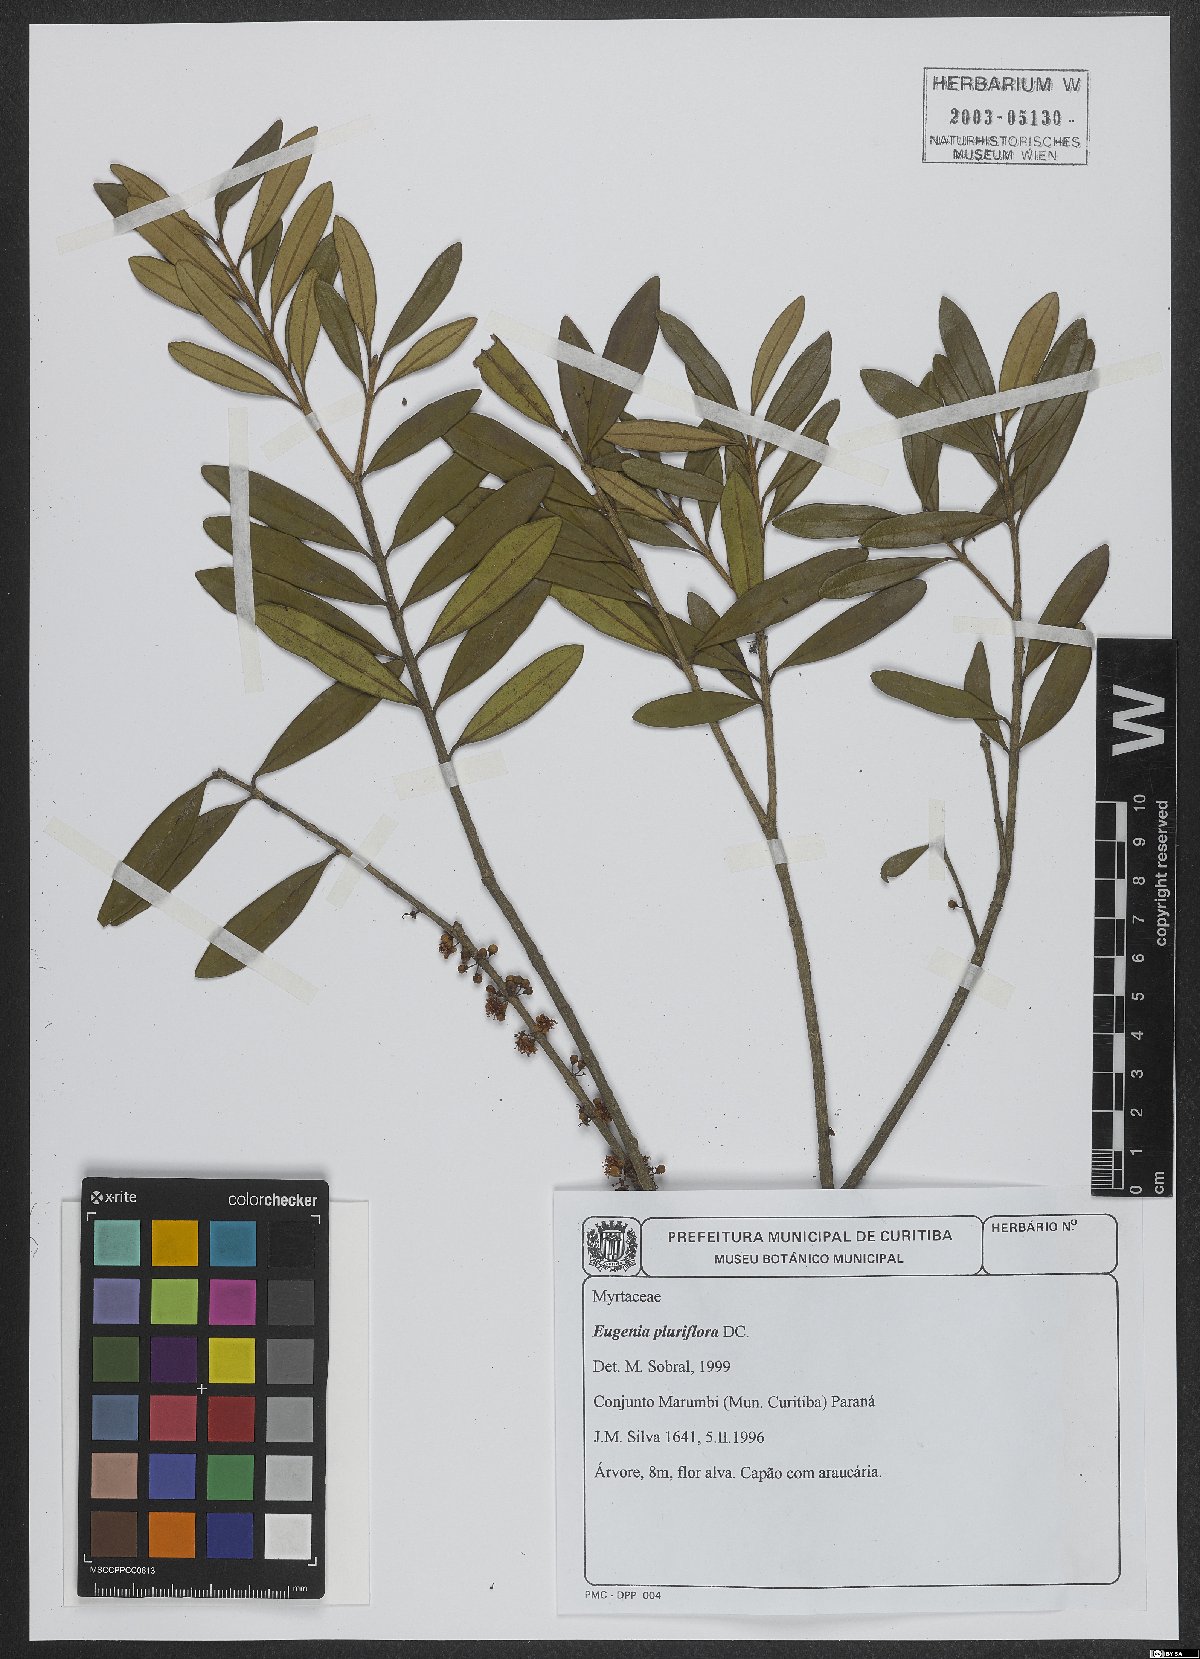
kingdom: Plantae
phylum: Tracheophyta
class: Magnoliopsida
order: Myrtales
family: Myrtaceae
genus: Eugenia
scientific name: Eugenia pluriflora
